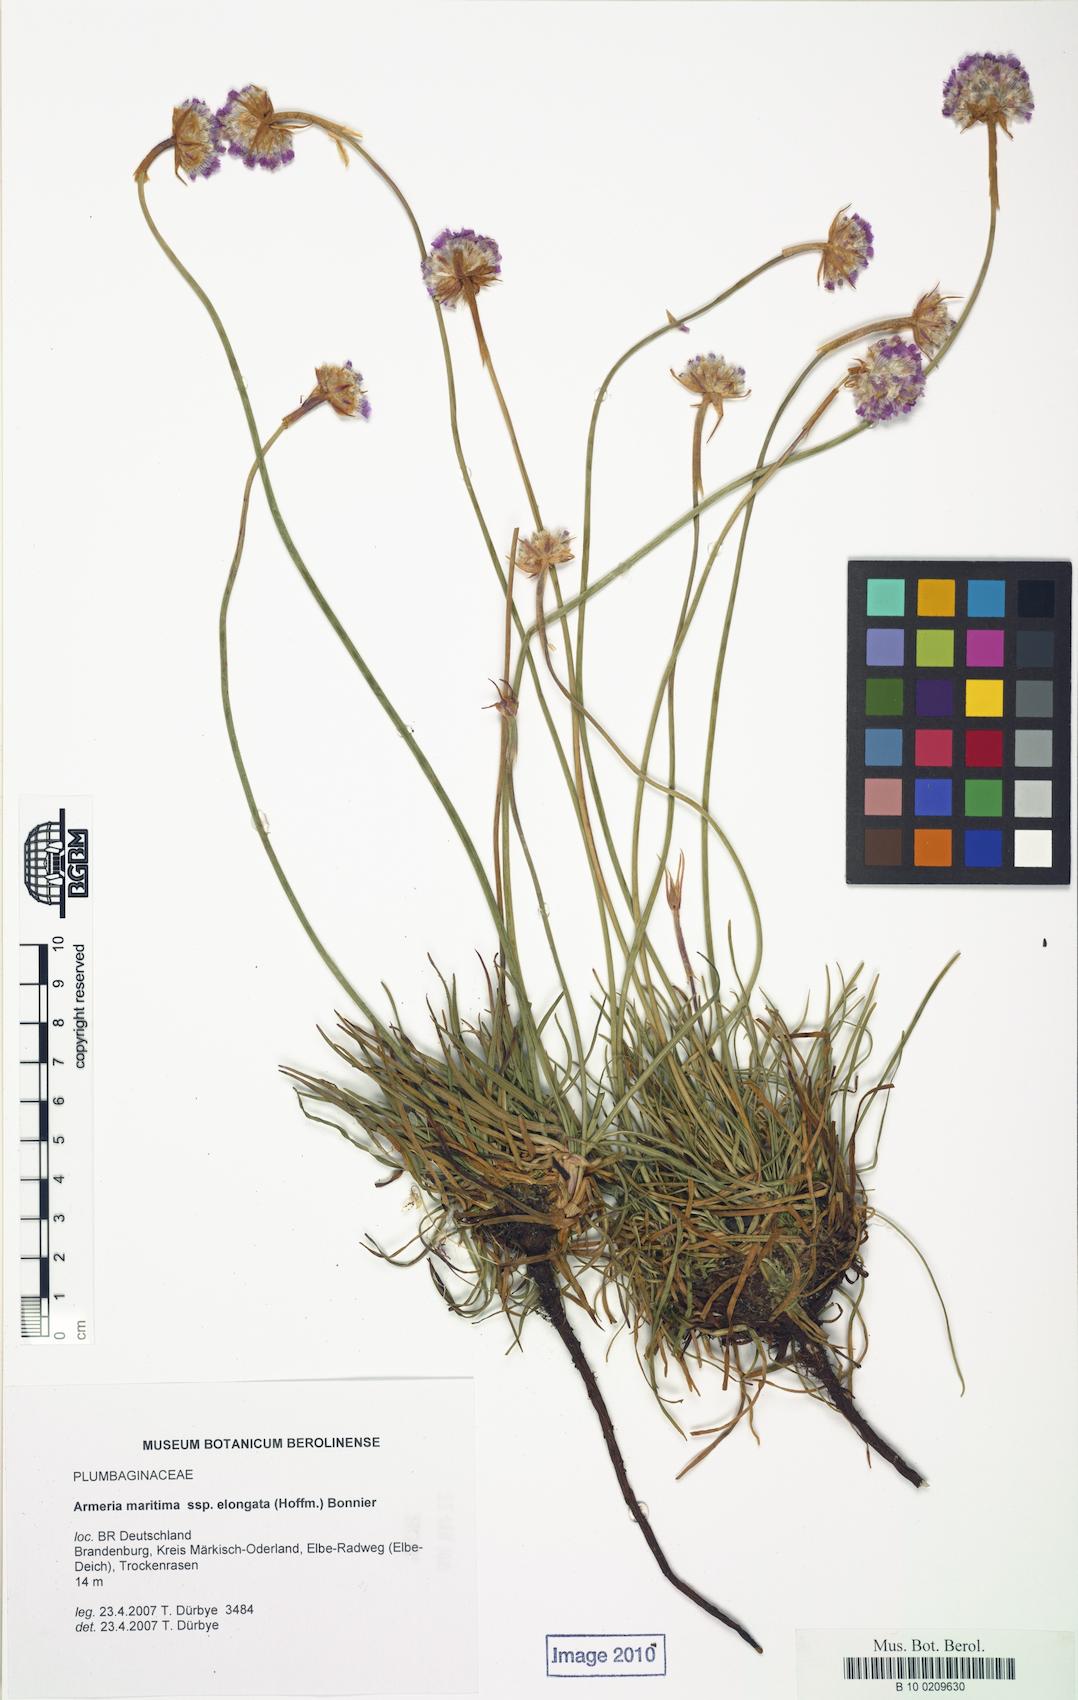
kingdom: Plantae
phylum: Tracheophyta
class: Magnoliopsida
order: Caryophyllales
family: Plumbaginaceae
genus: Armeria
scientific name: Armeria maritima
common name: Thrift
